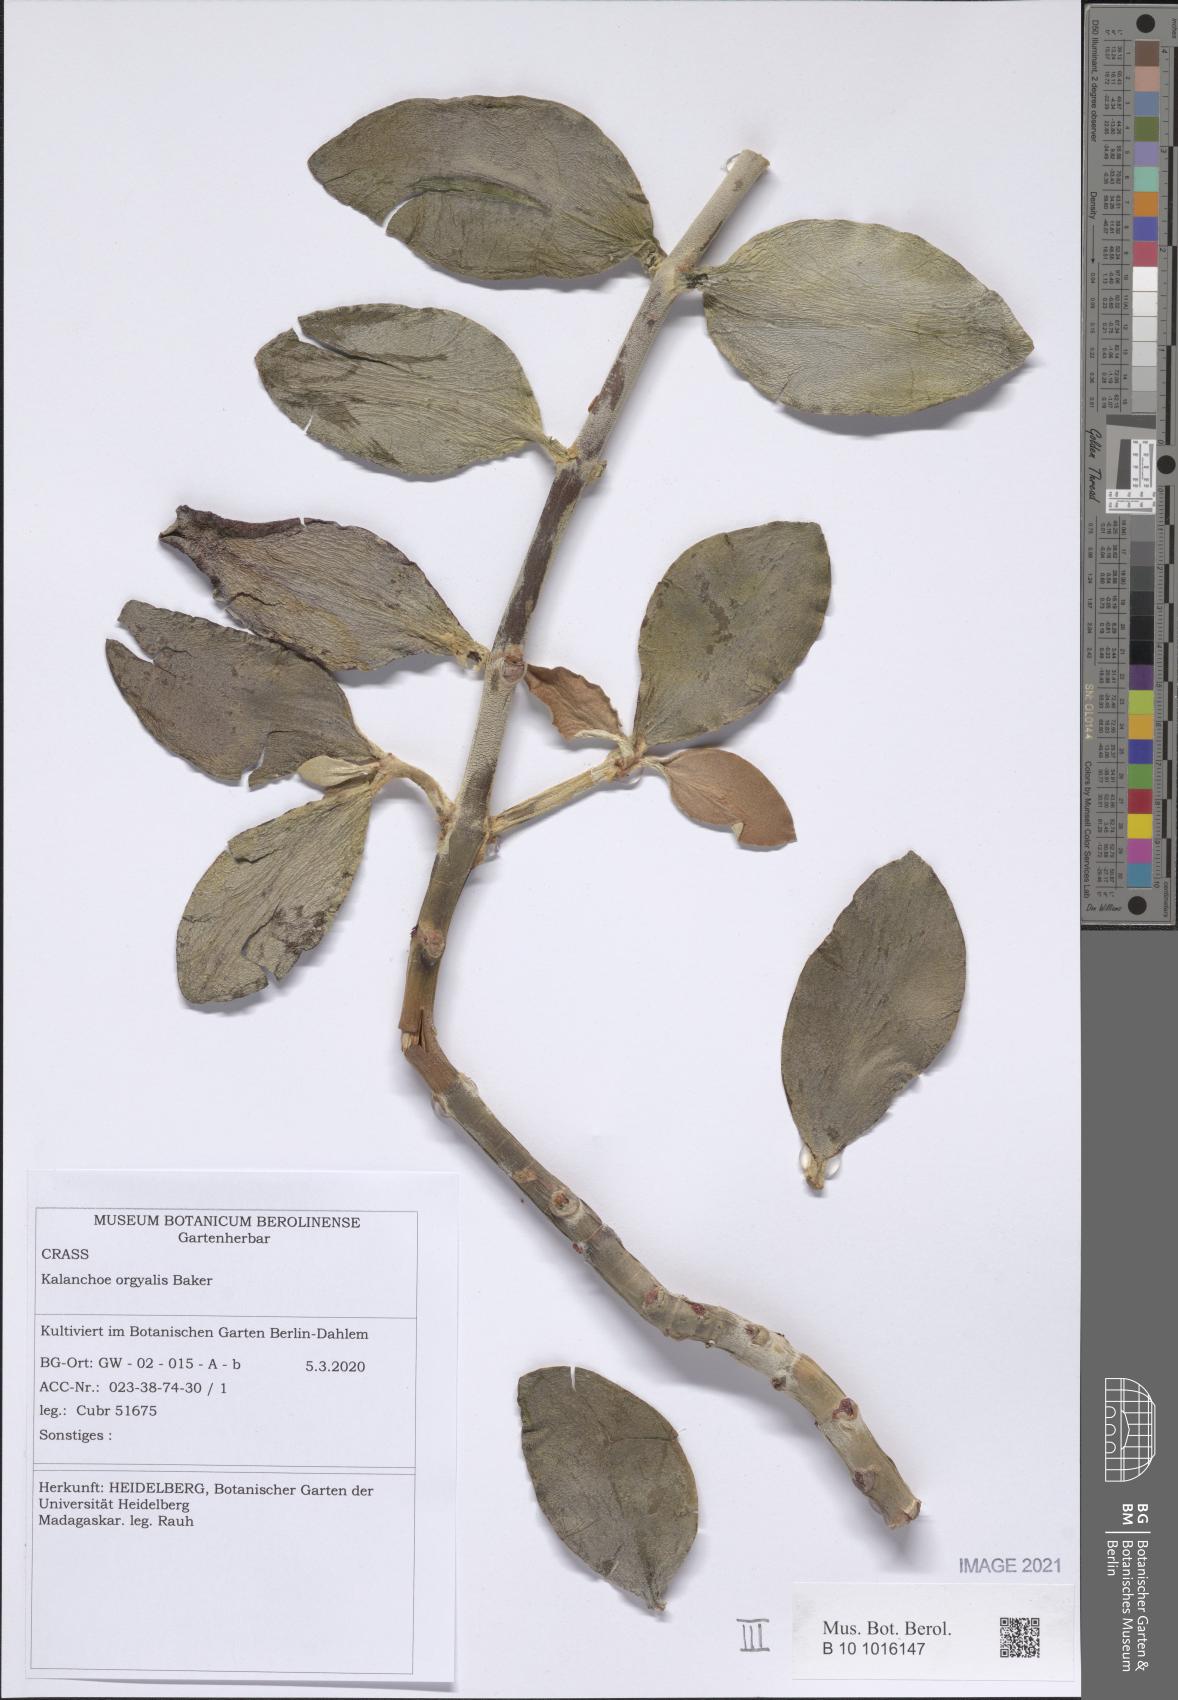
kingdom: Plantae
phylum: Tracheophyta
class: Magnoliopsida
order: Saxifragales
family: Crassulaceae
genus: Kalanchoe
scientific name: Kalanchoe orgyalis
